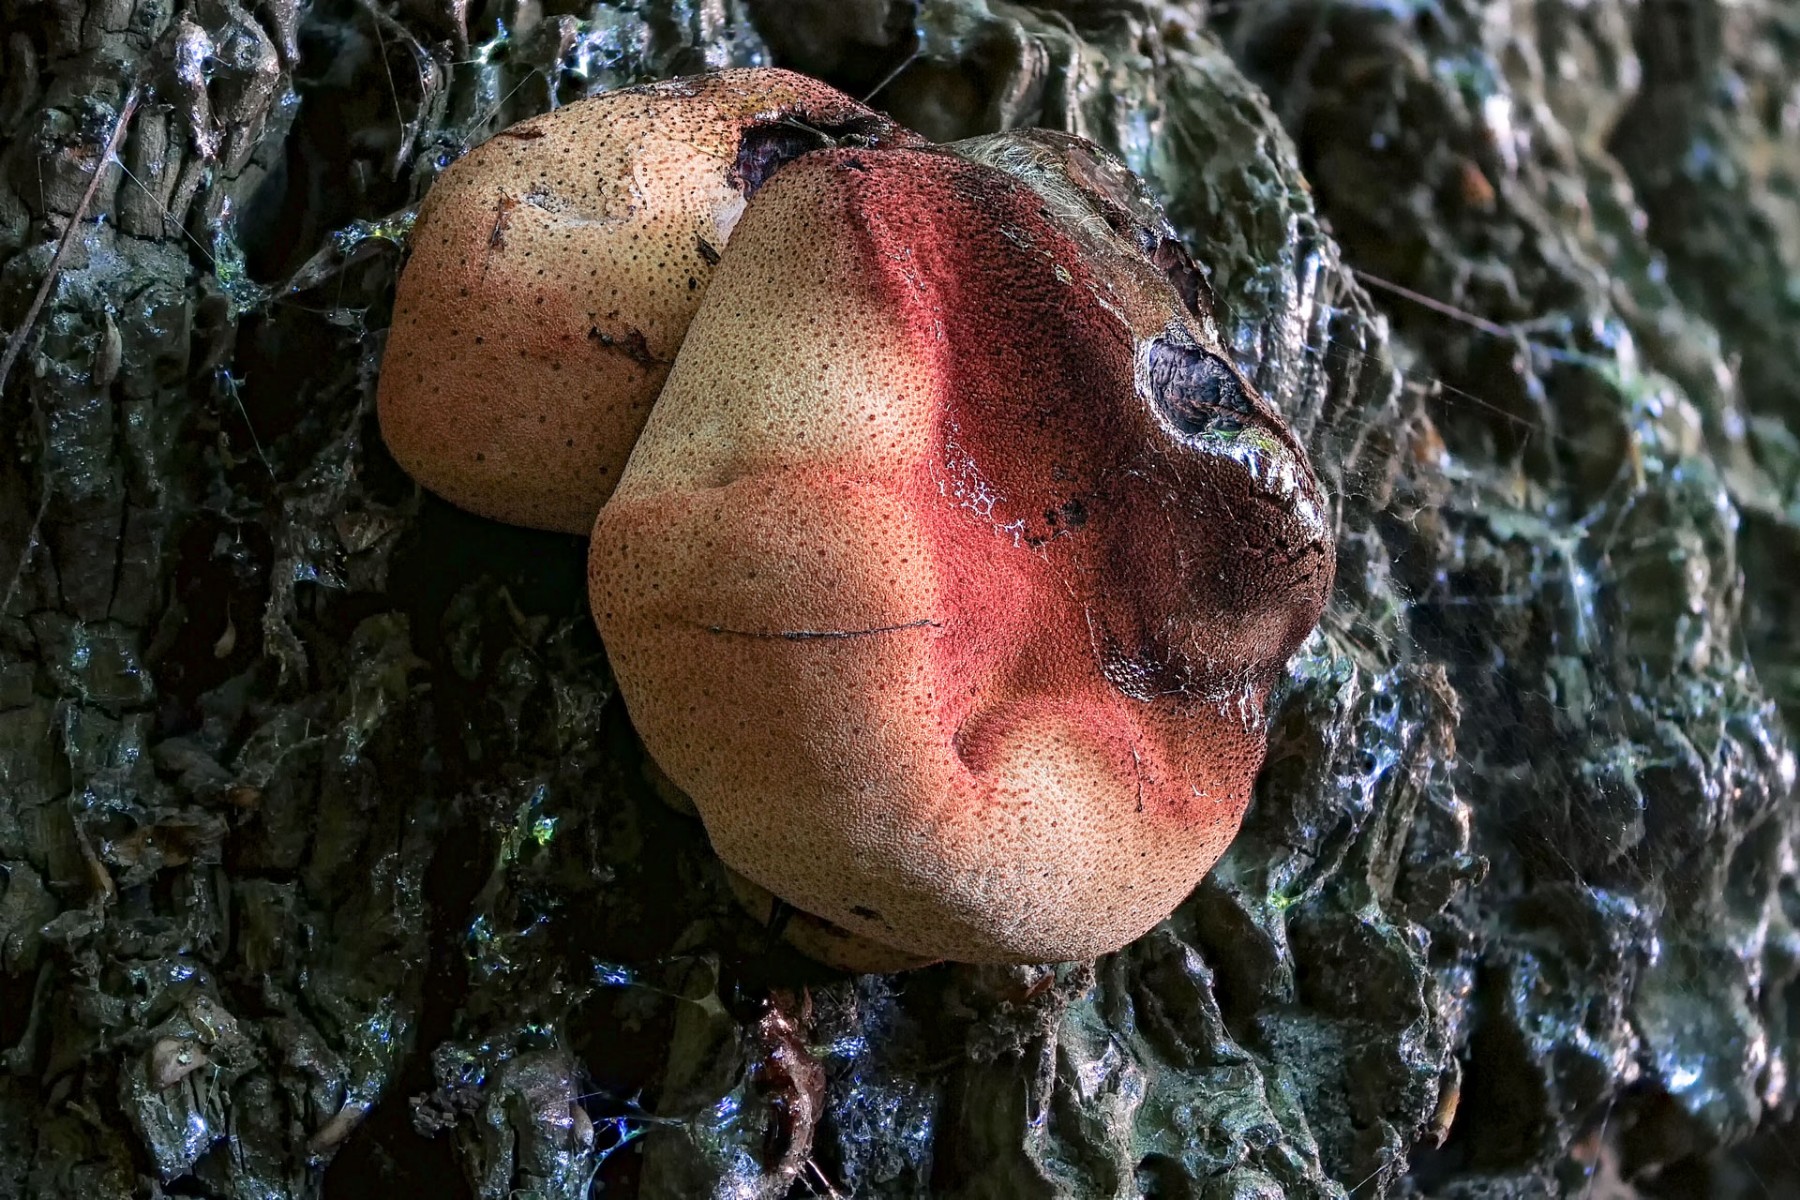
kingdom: Fungi
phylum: Basidiomycota
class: Agaricomycetes
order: Agaricales
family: Fistulinaceae
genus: Fistulina
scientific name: Fistulina hepatica
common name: oksetunge
